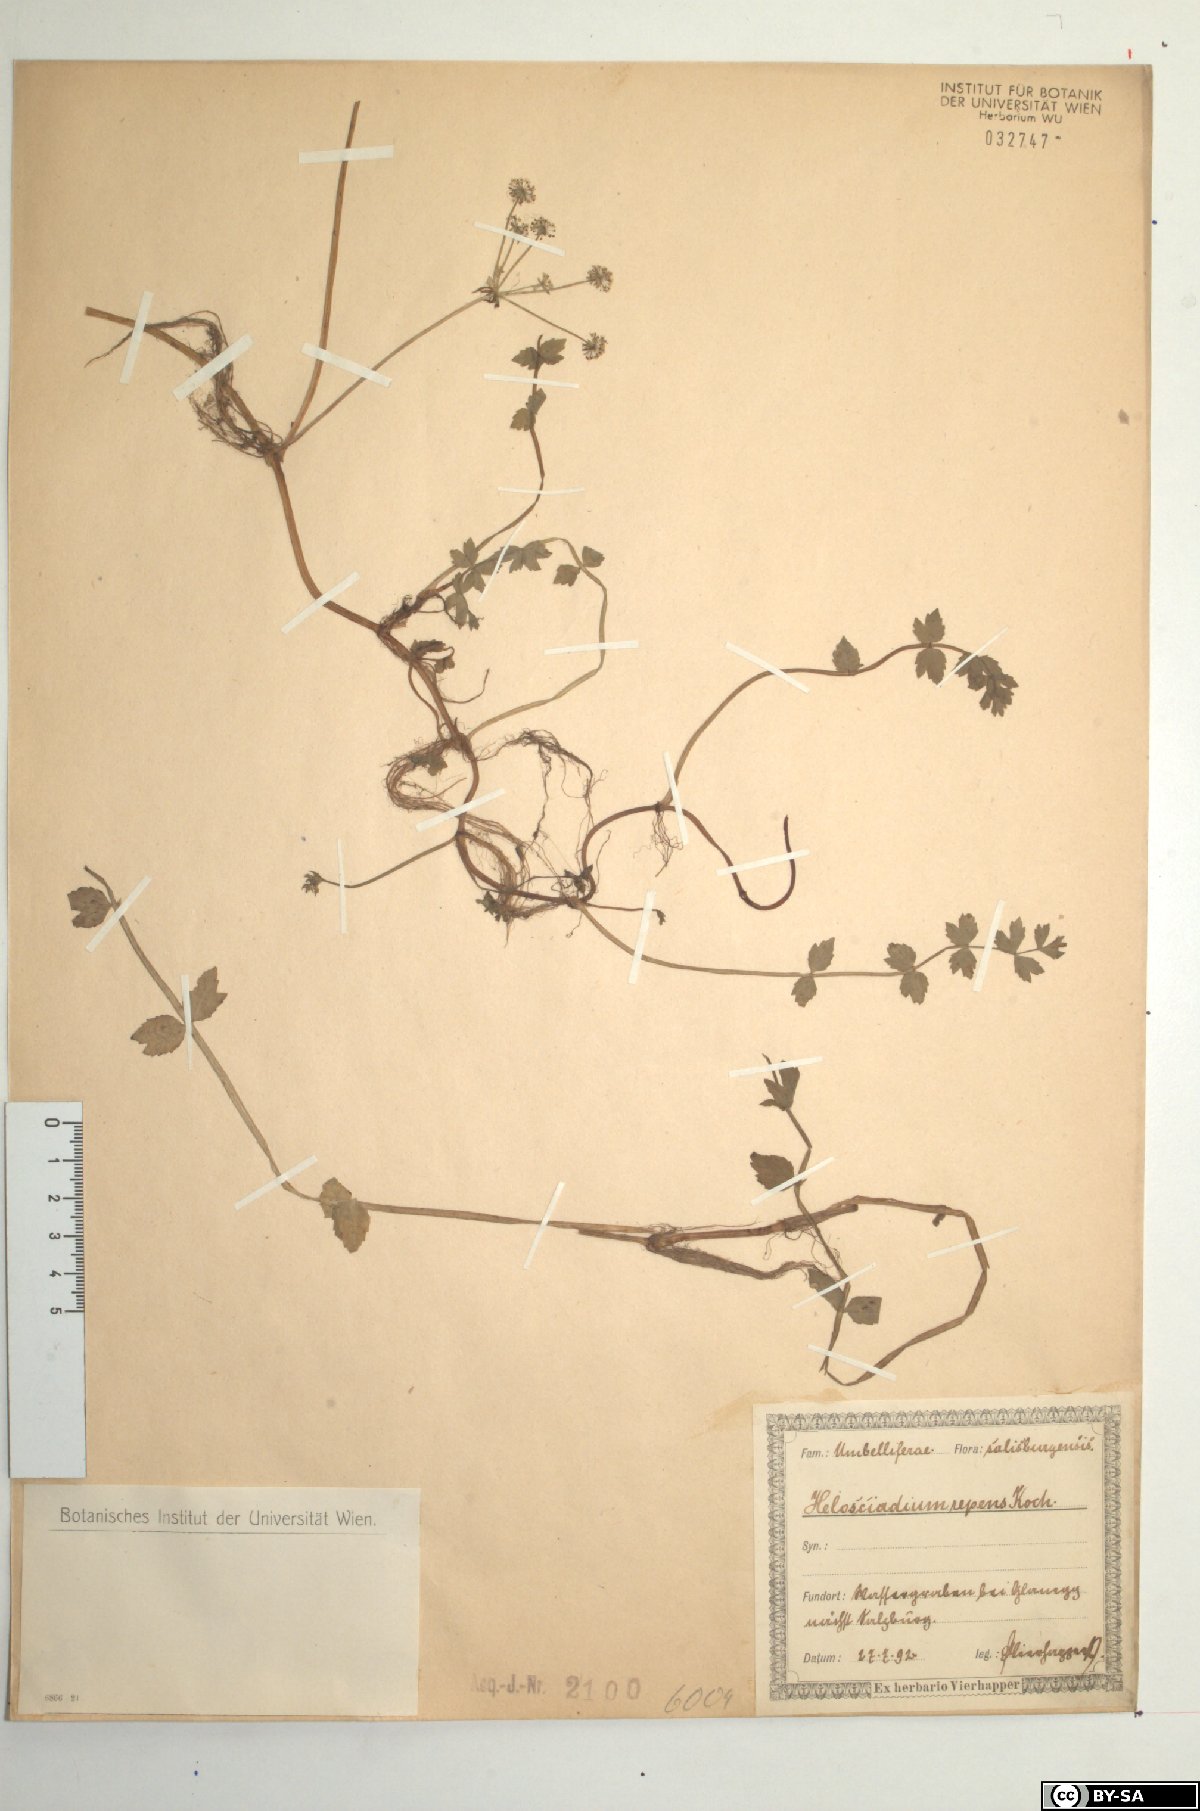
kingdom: Plantae
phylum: Tracheophyta
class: Magnoliopsida
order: Apiales
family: Apiaceae
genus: Helosciadium
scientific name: Helosciadium repens
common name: Creeping marshwort
